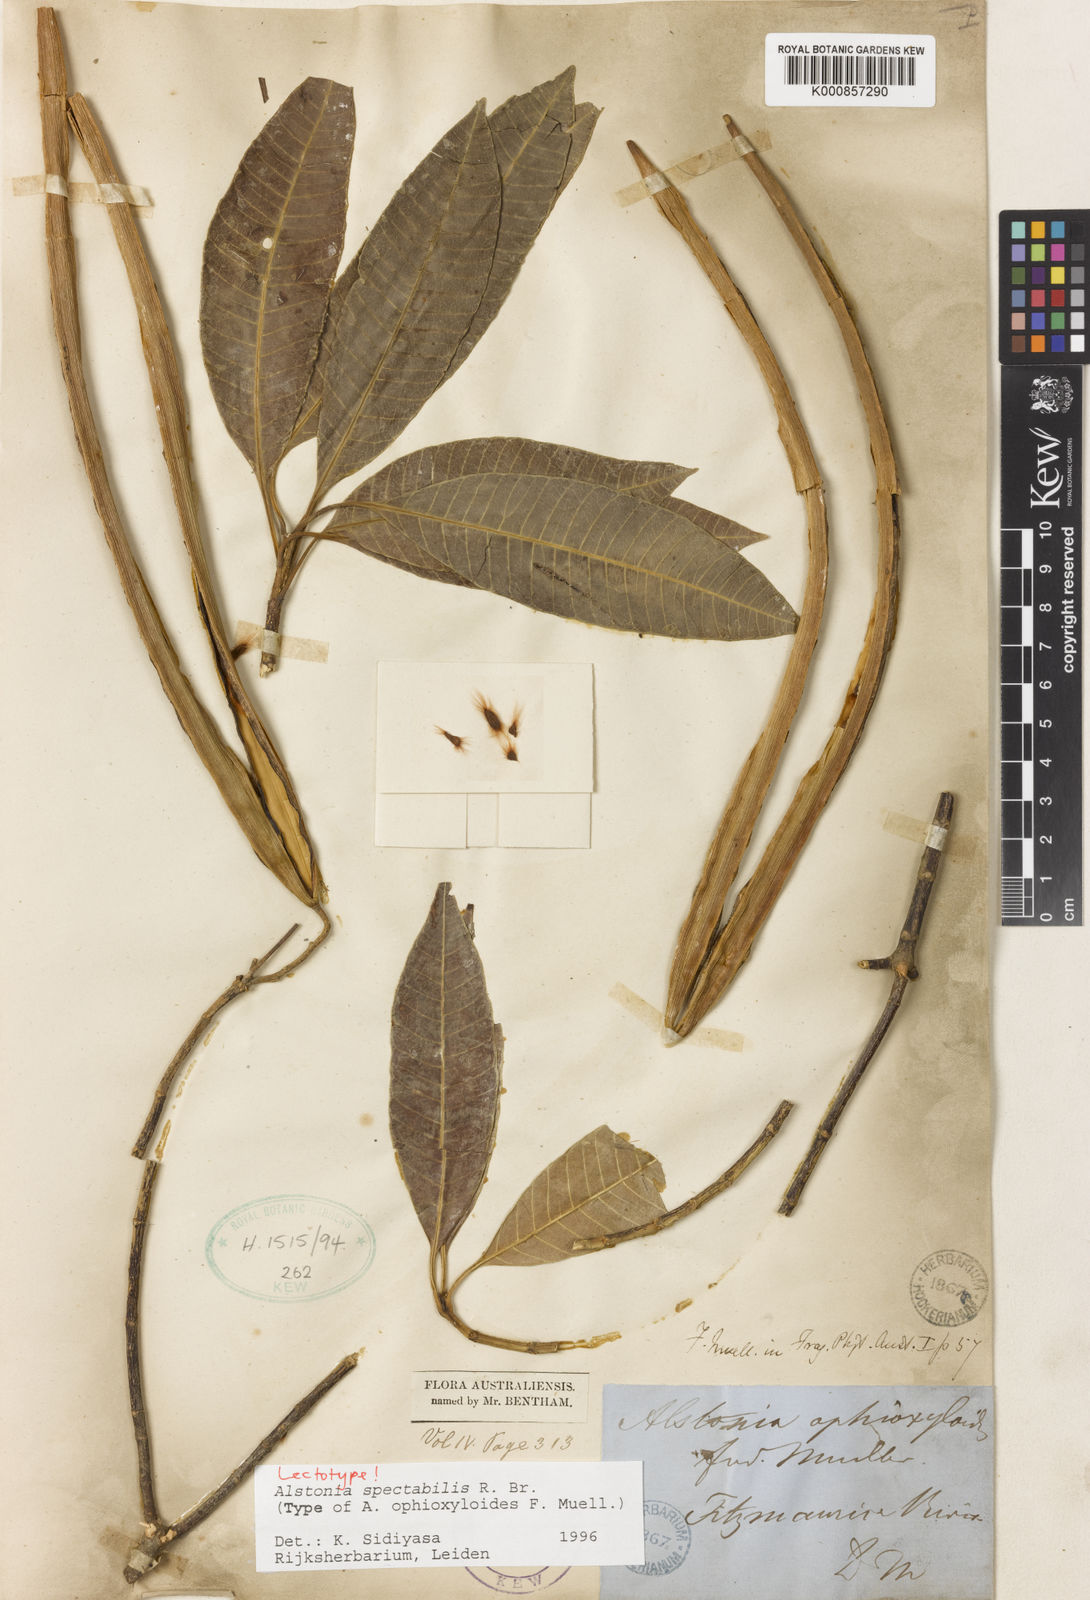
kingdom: Plantae
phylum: Tracheophyta
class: Magnoliopsida
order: Gentianales
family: Apocynaceae
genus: Alstonia
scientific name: Alstonia spectabilis
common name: Milky yellowwood
